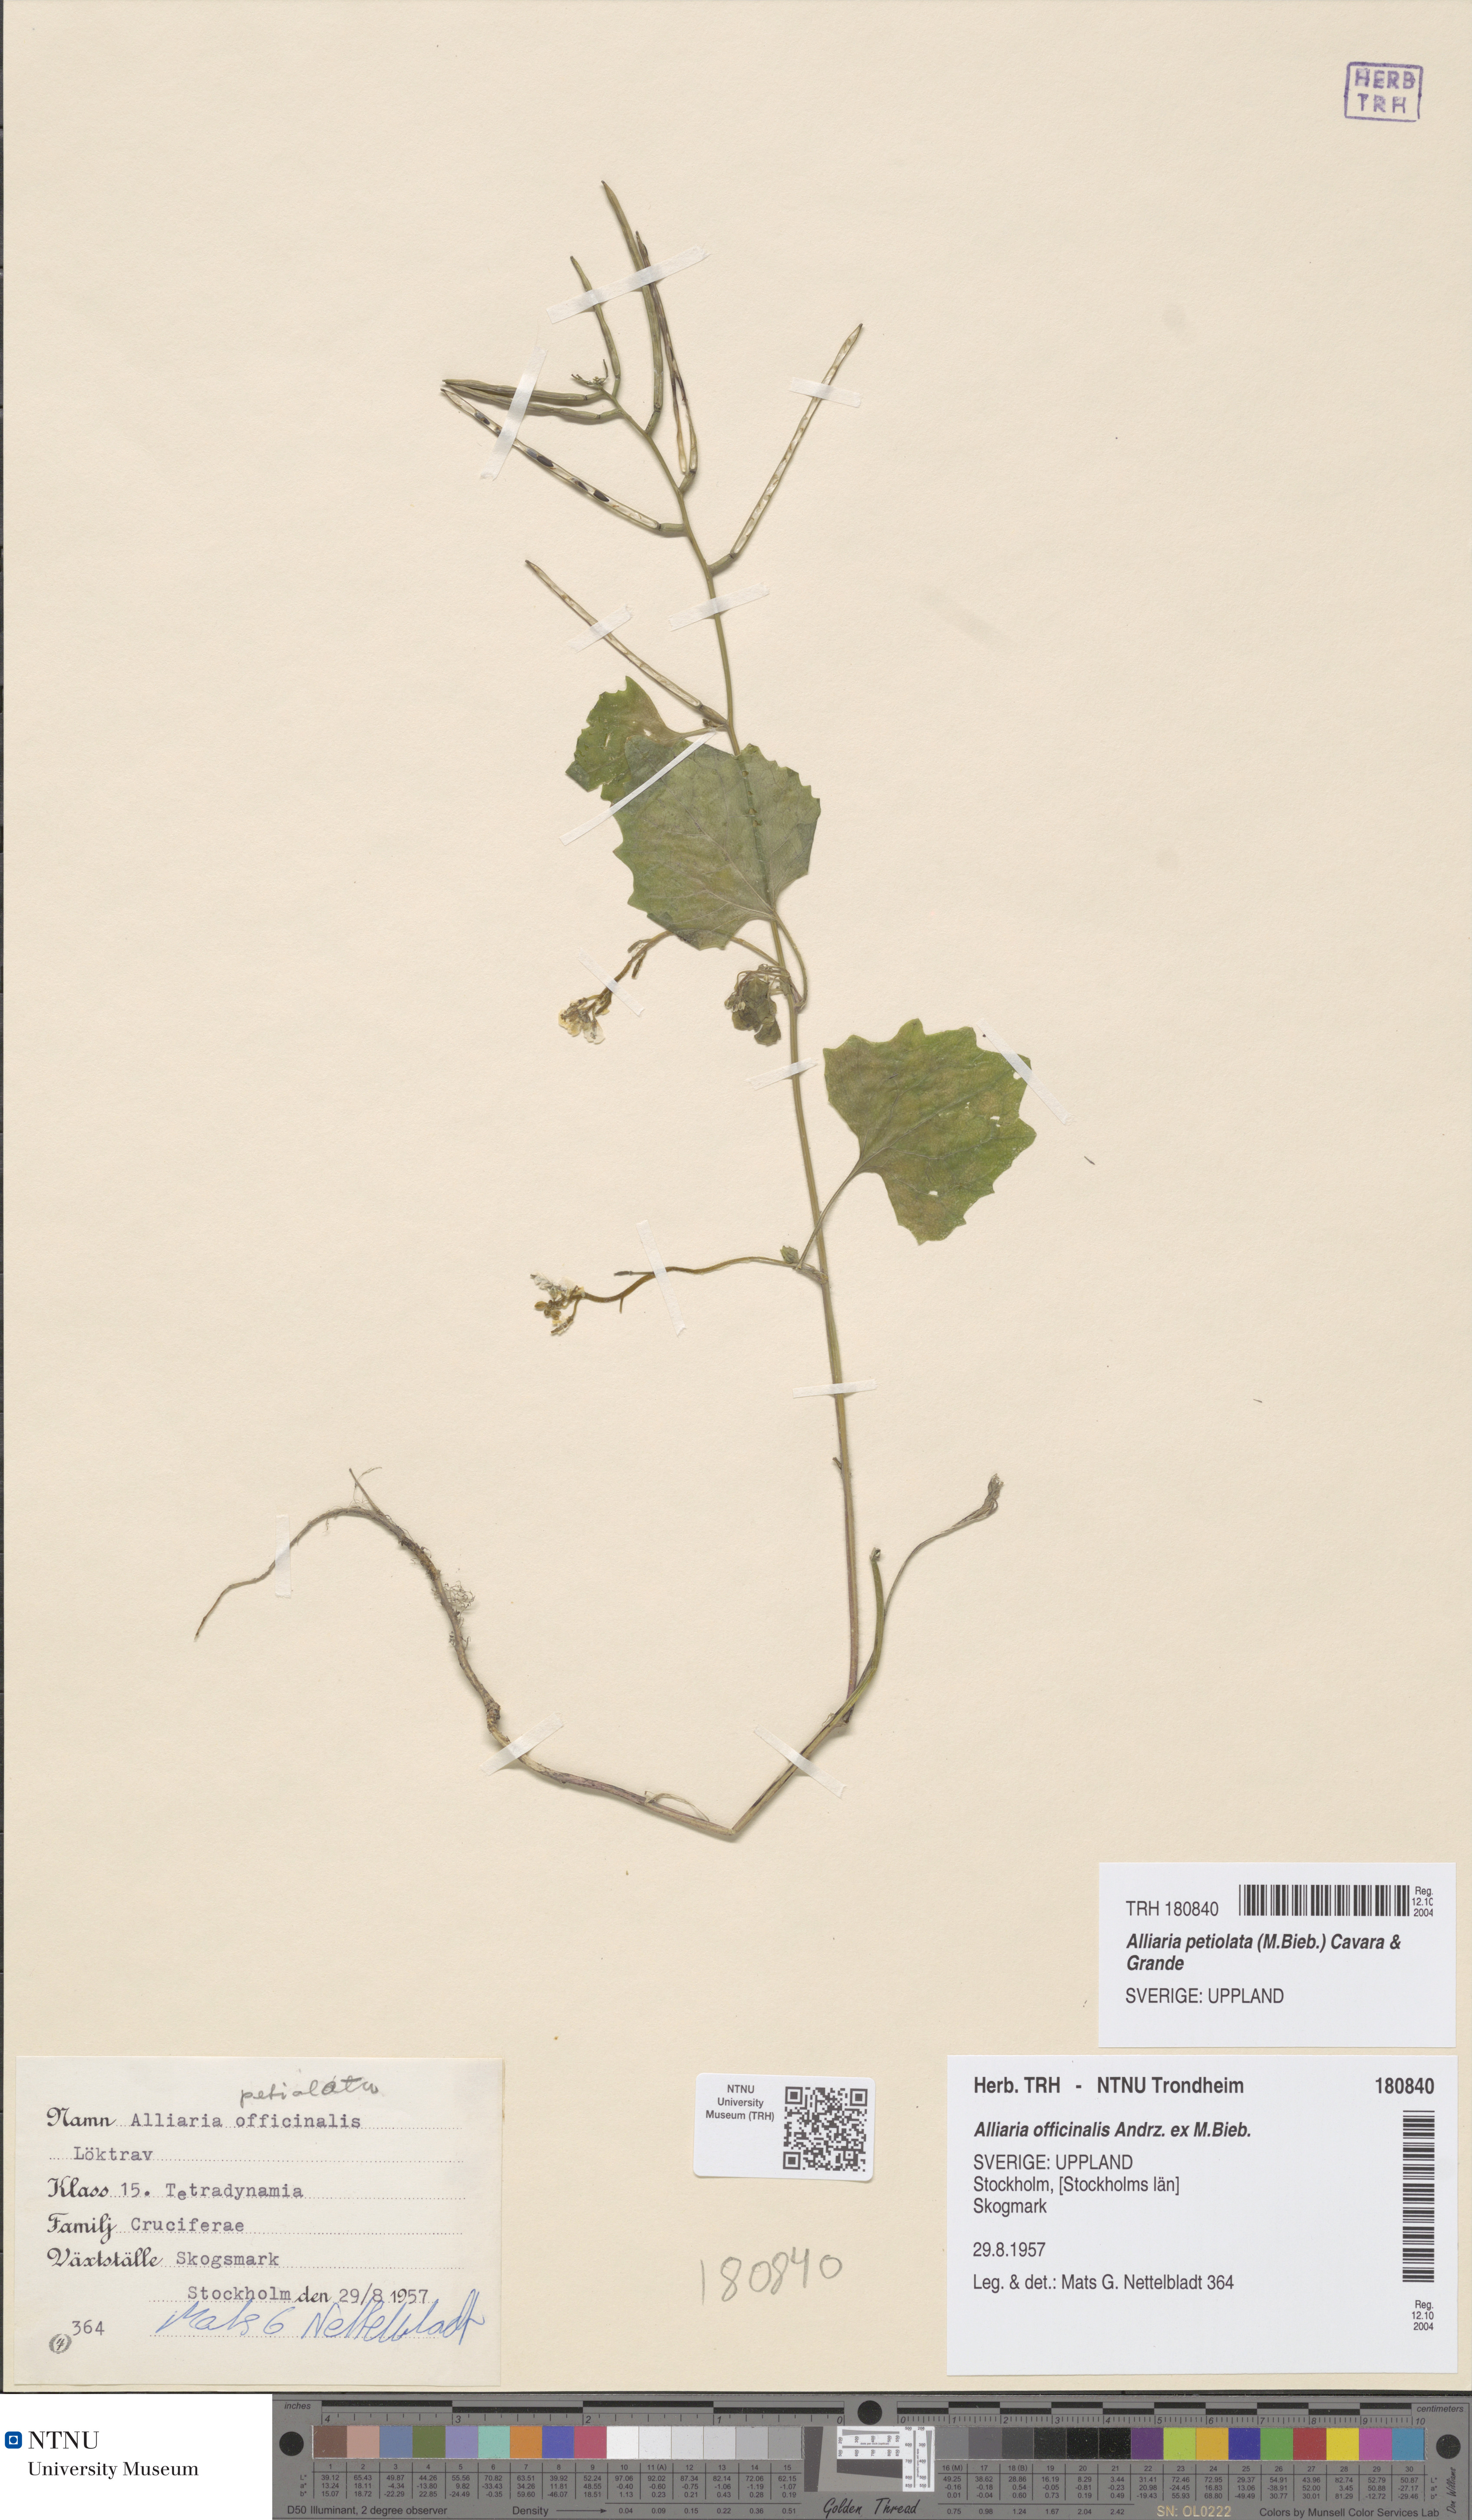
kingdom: Plantae
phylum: Tracheophyta
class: Magnoliopsida
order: Brassicales
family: Brassicaceae
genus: Alliaria
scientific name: Alliaria petiolata
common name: Garlic mustard
